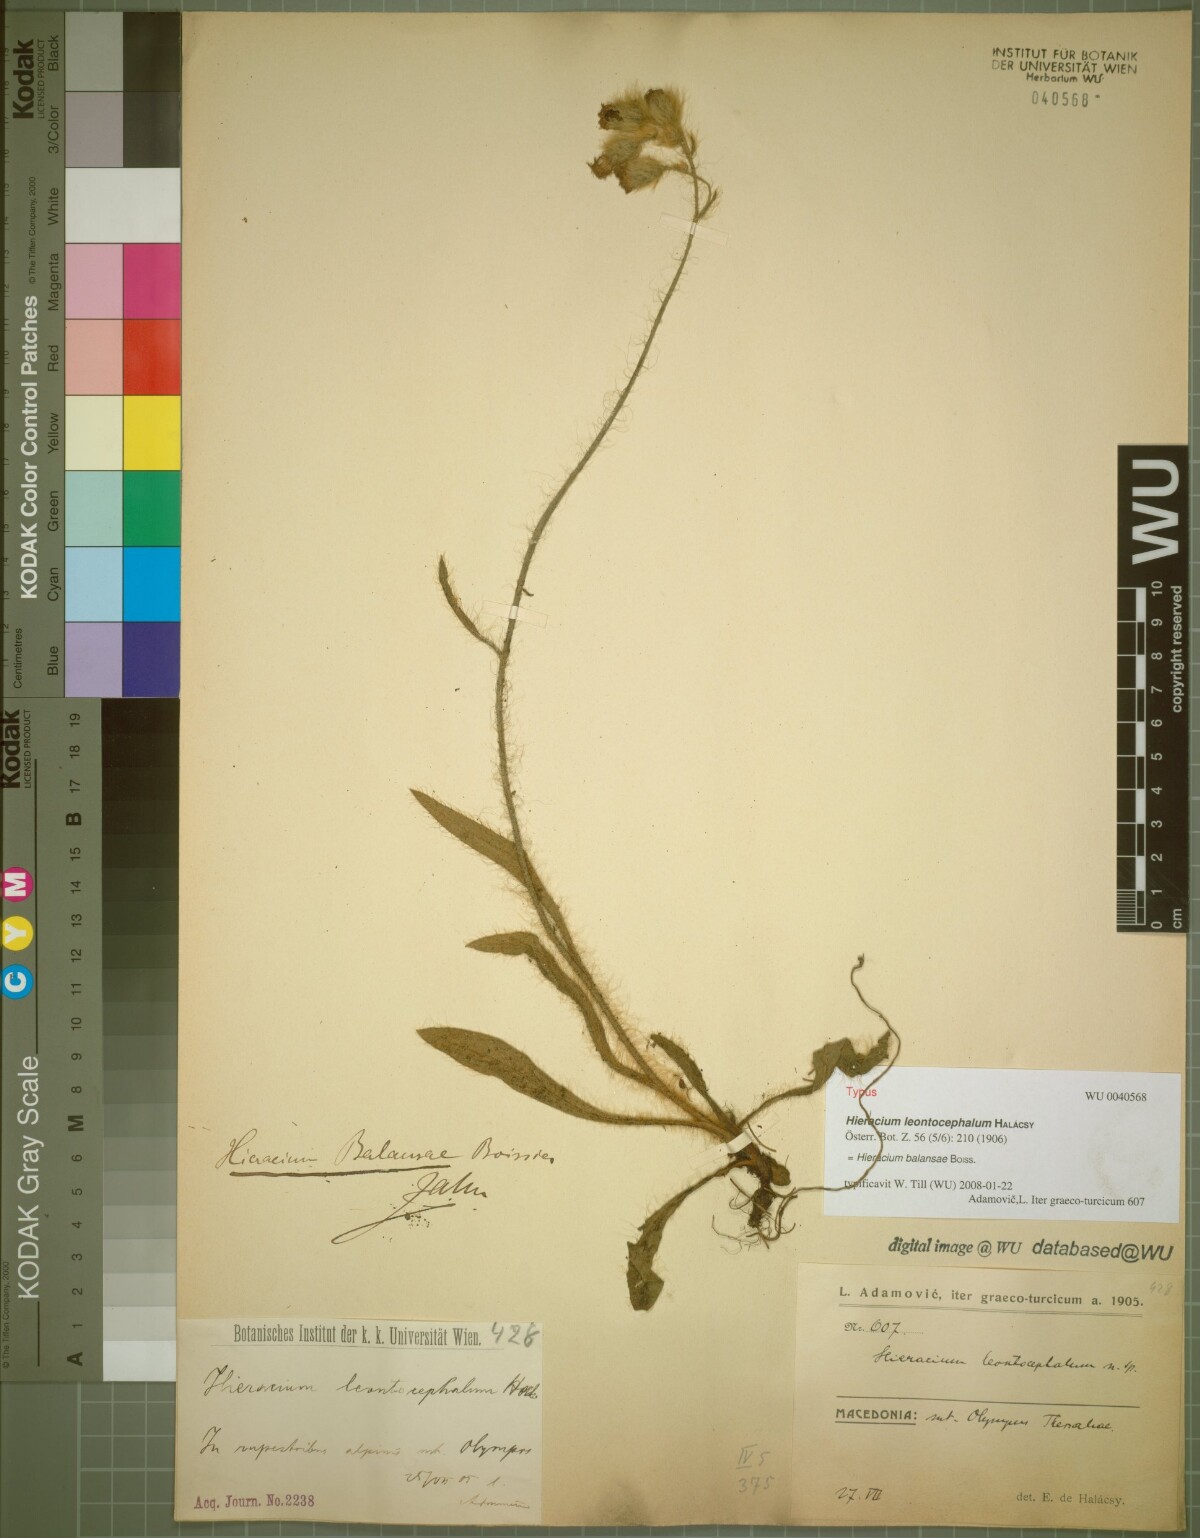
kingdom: Plantae
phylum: Tracheophyta
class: Magnoliopsida
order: Asterales
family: Asteraceae
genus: Pilosella
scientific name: Pilosella balansae
